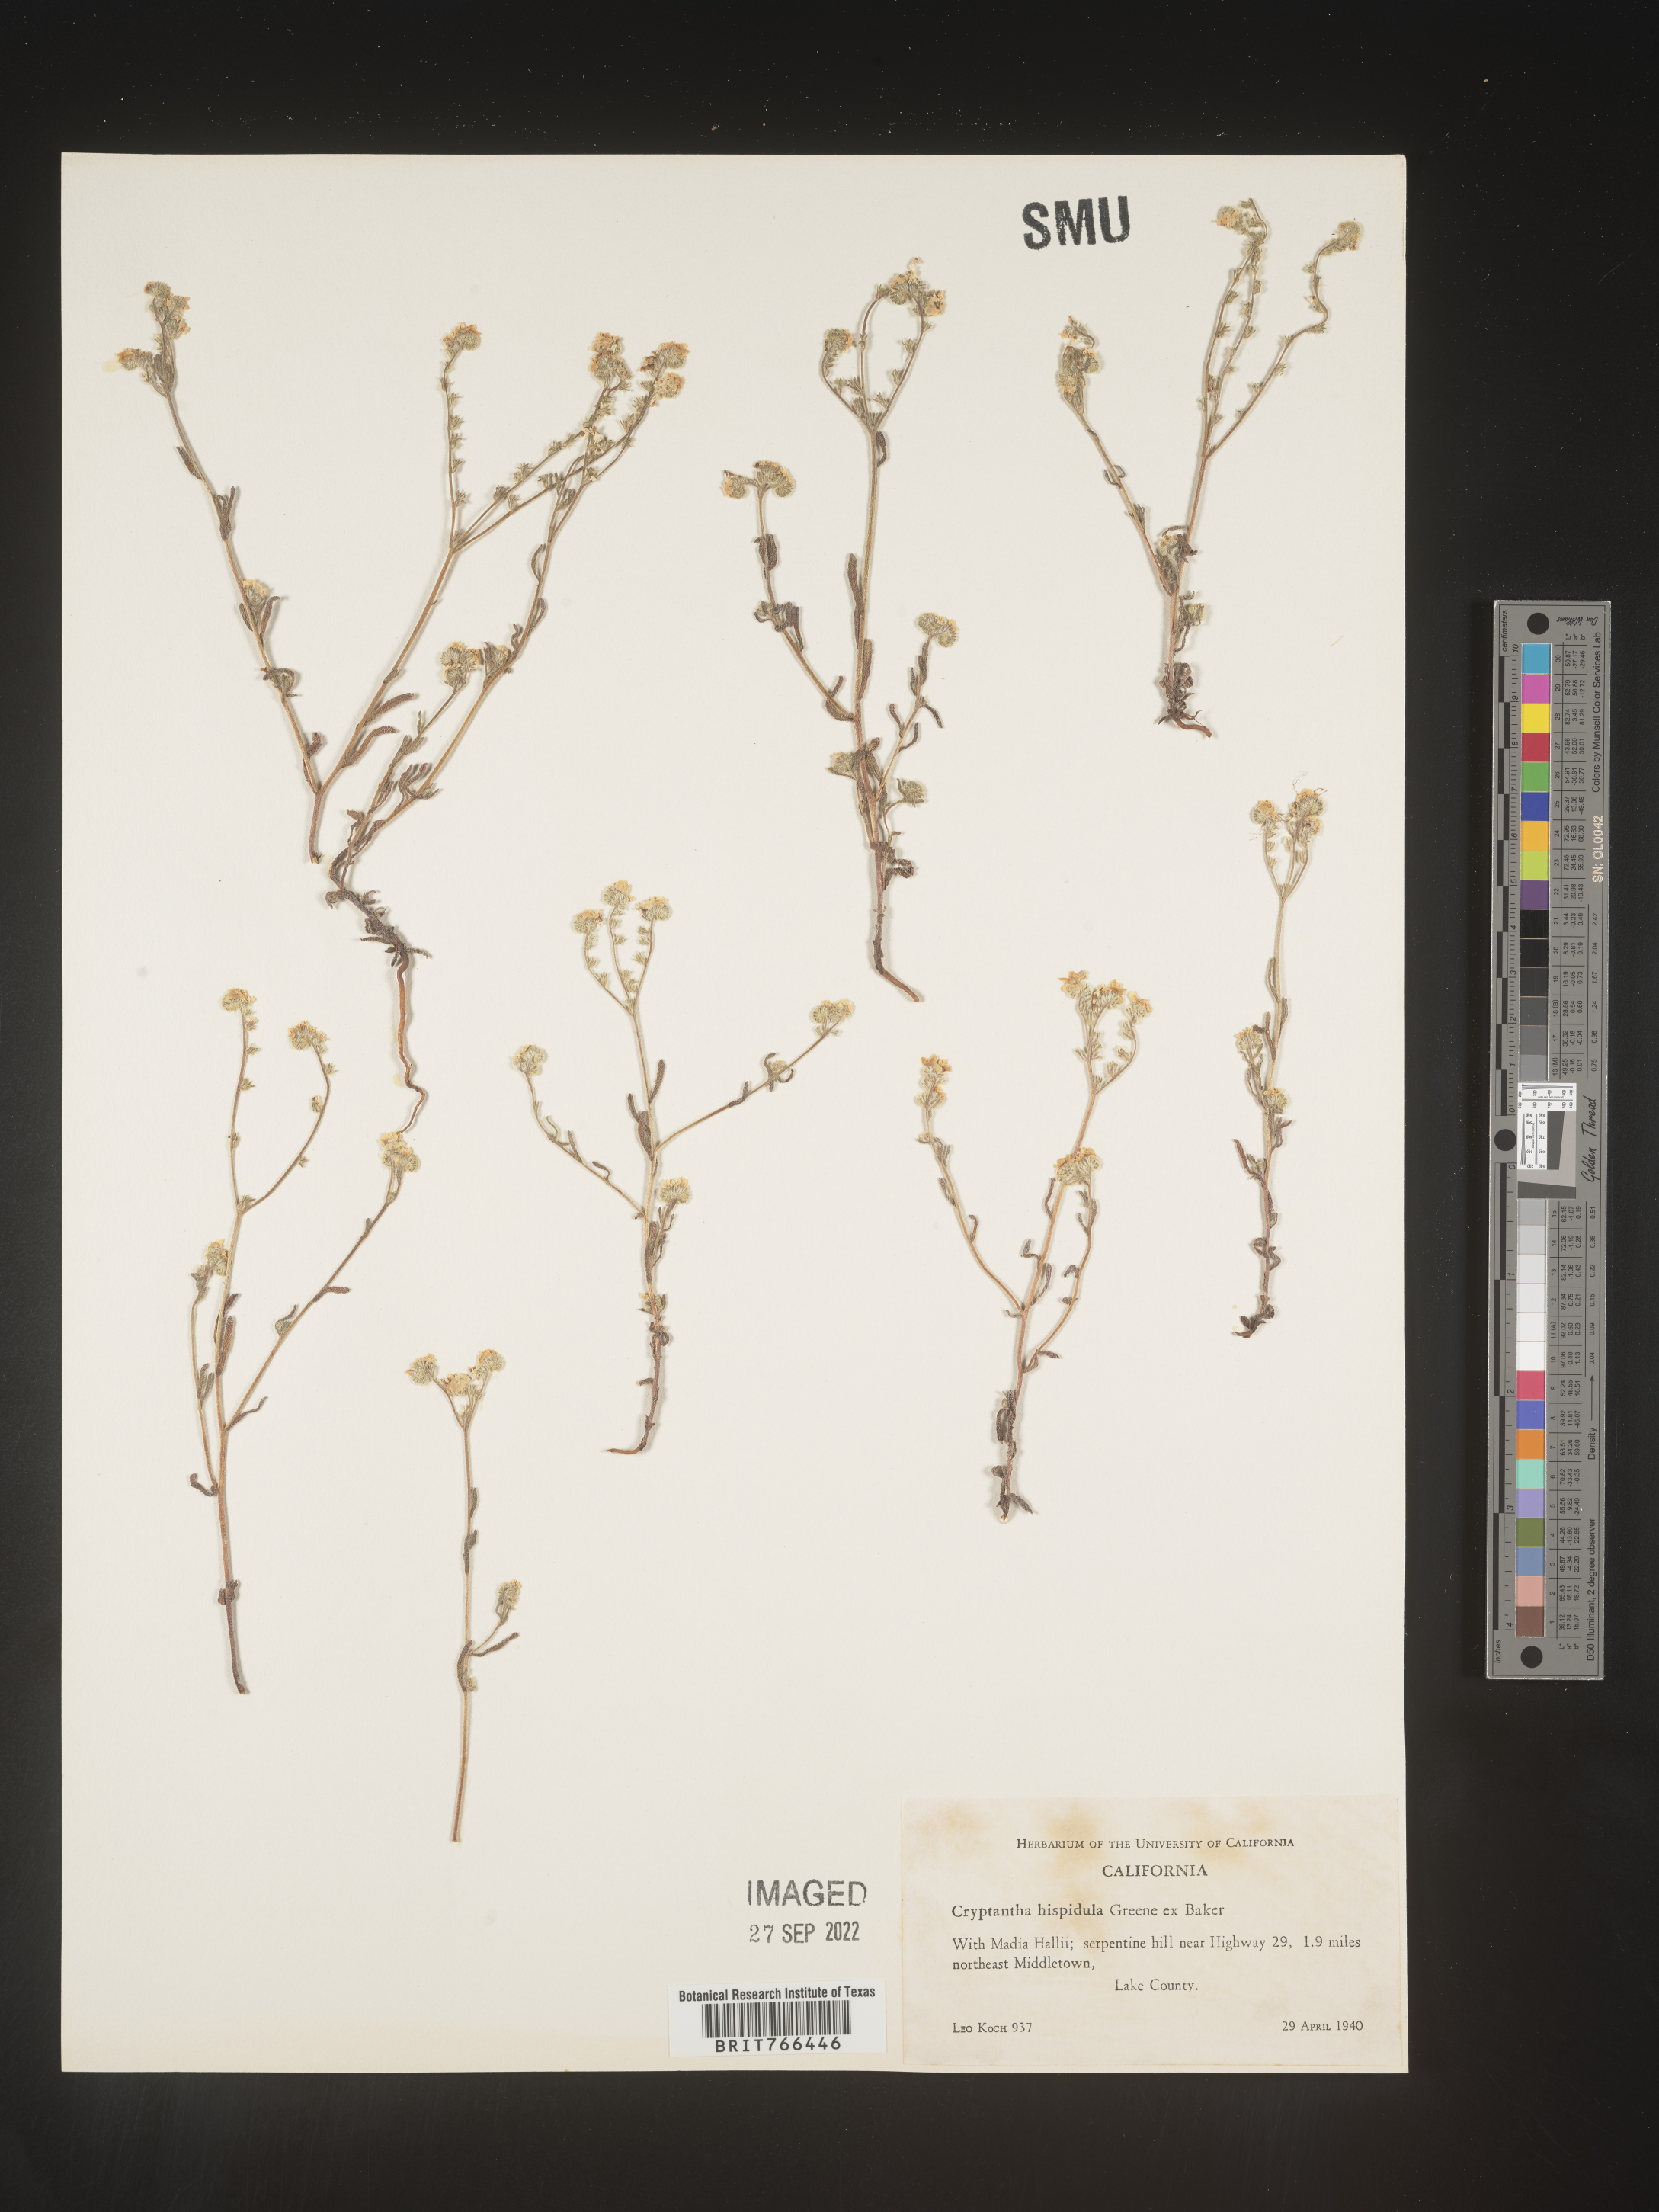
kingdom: Plantae
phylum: Tracheophyta
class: Magnoliopsida
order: Boraginales
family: Boraginaceae
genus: Cryptantha
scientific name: Cryptantha
